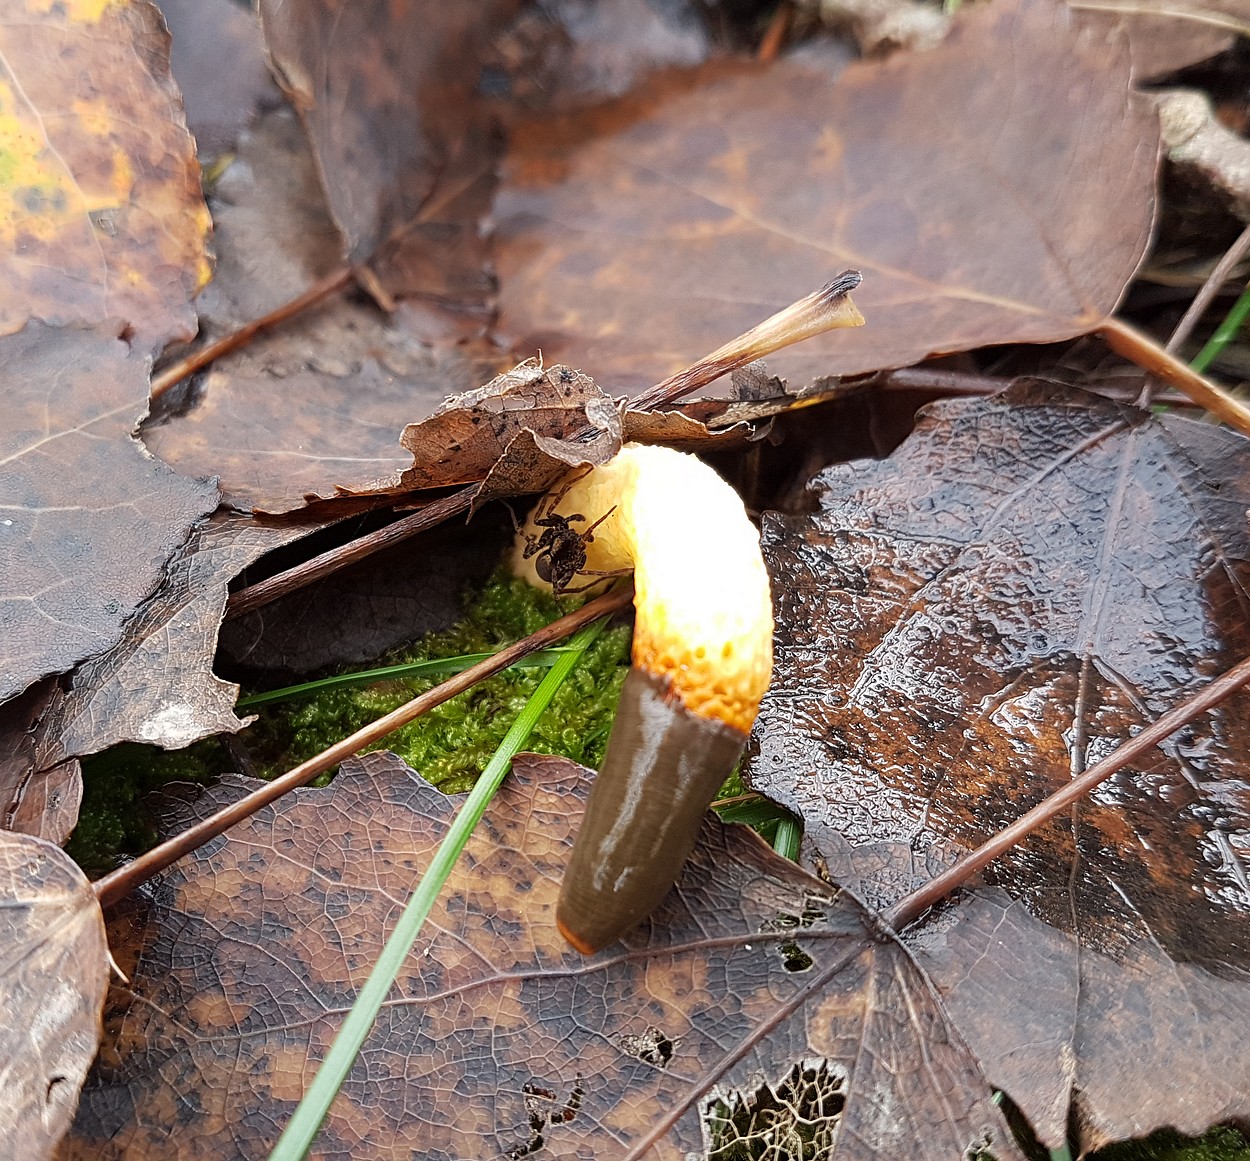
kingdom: Fungi
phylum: Basidiomycota
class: Agaricomycetes
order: Phallales
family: Phallaceae
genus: Mutinus
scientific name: Mutinus caninus
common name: hunde-stinksvamp
